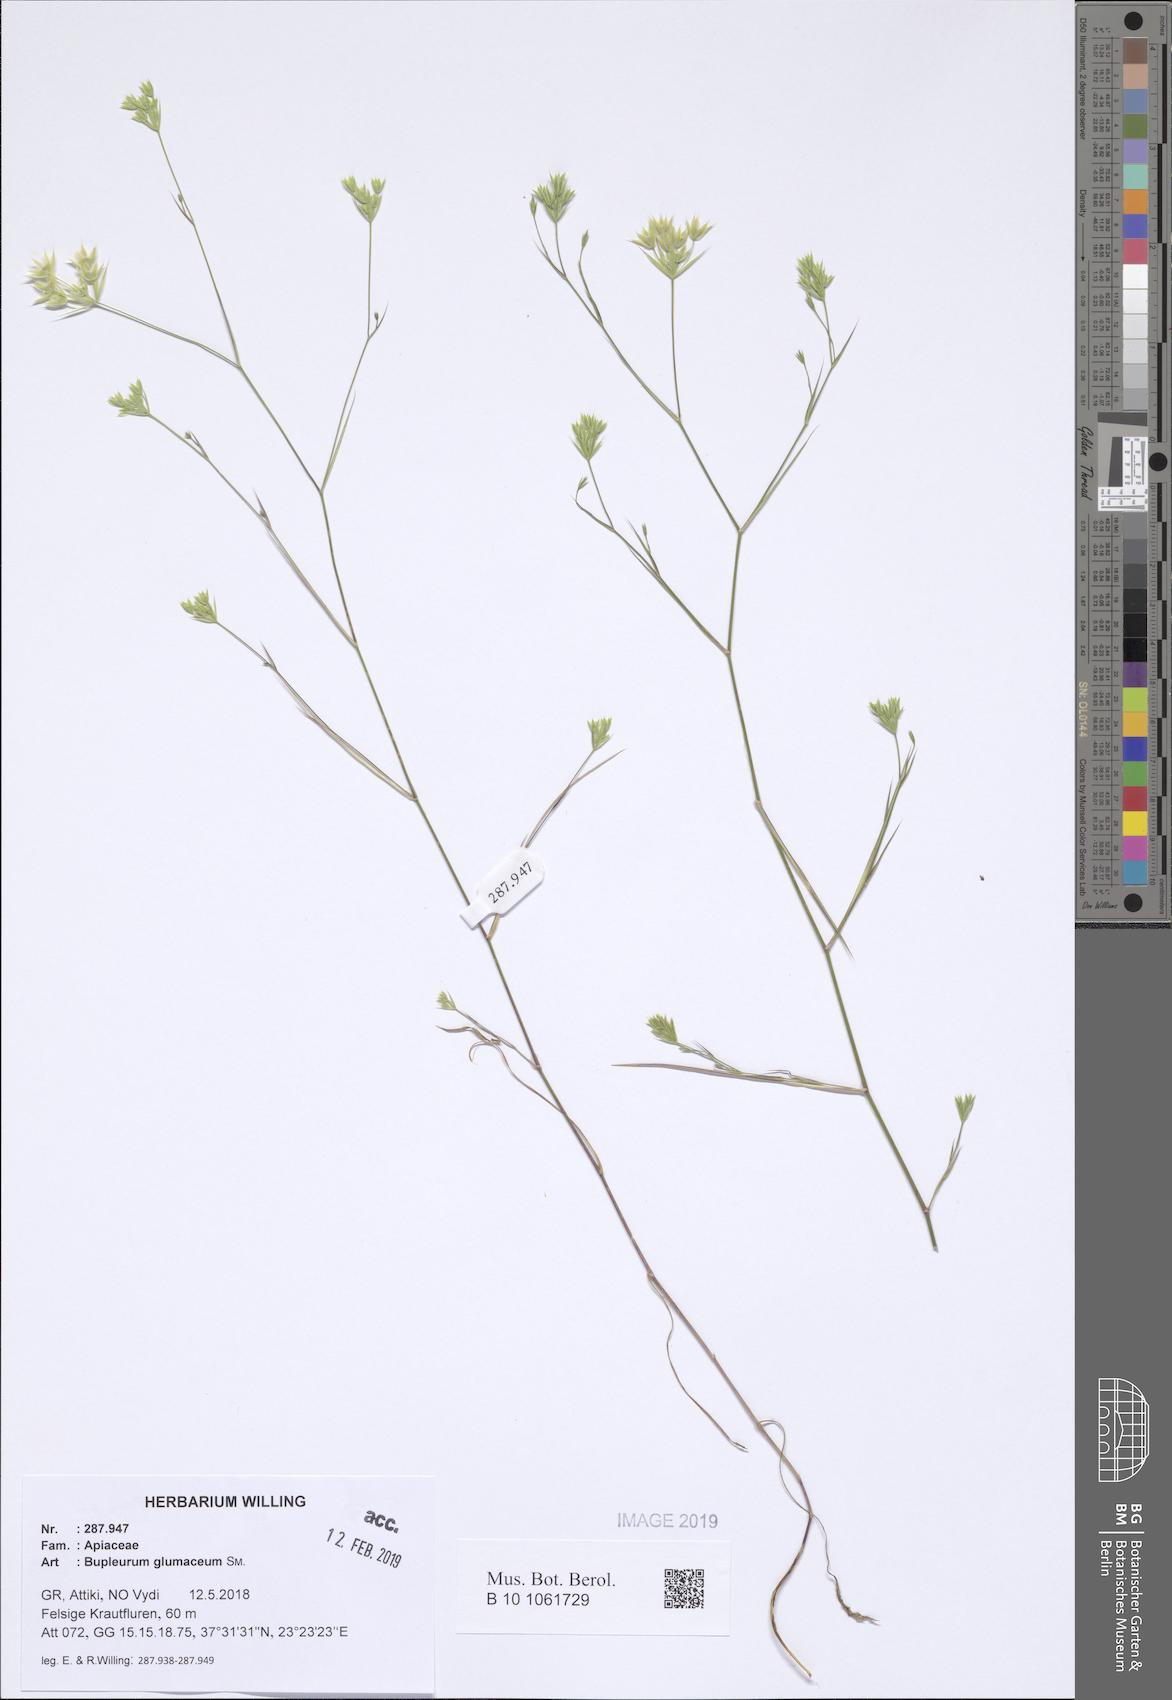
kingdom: Plantae
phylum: Tracheophyta
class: Magnoliopsida
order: Apiales
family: Apiaceae
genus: Bupleurum
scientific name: Bupleurum glumaceum
